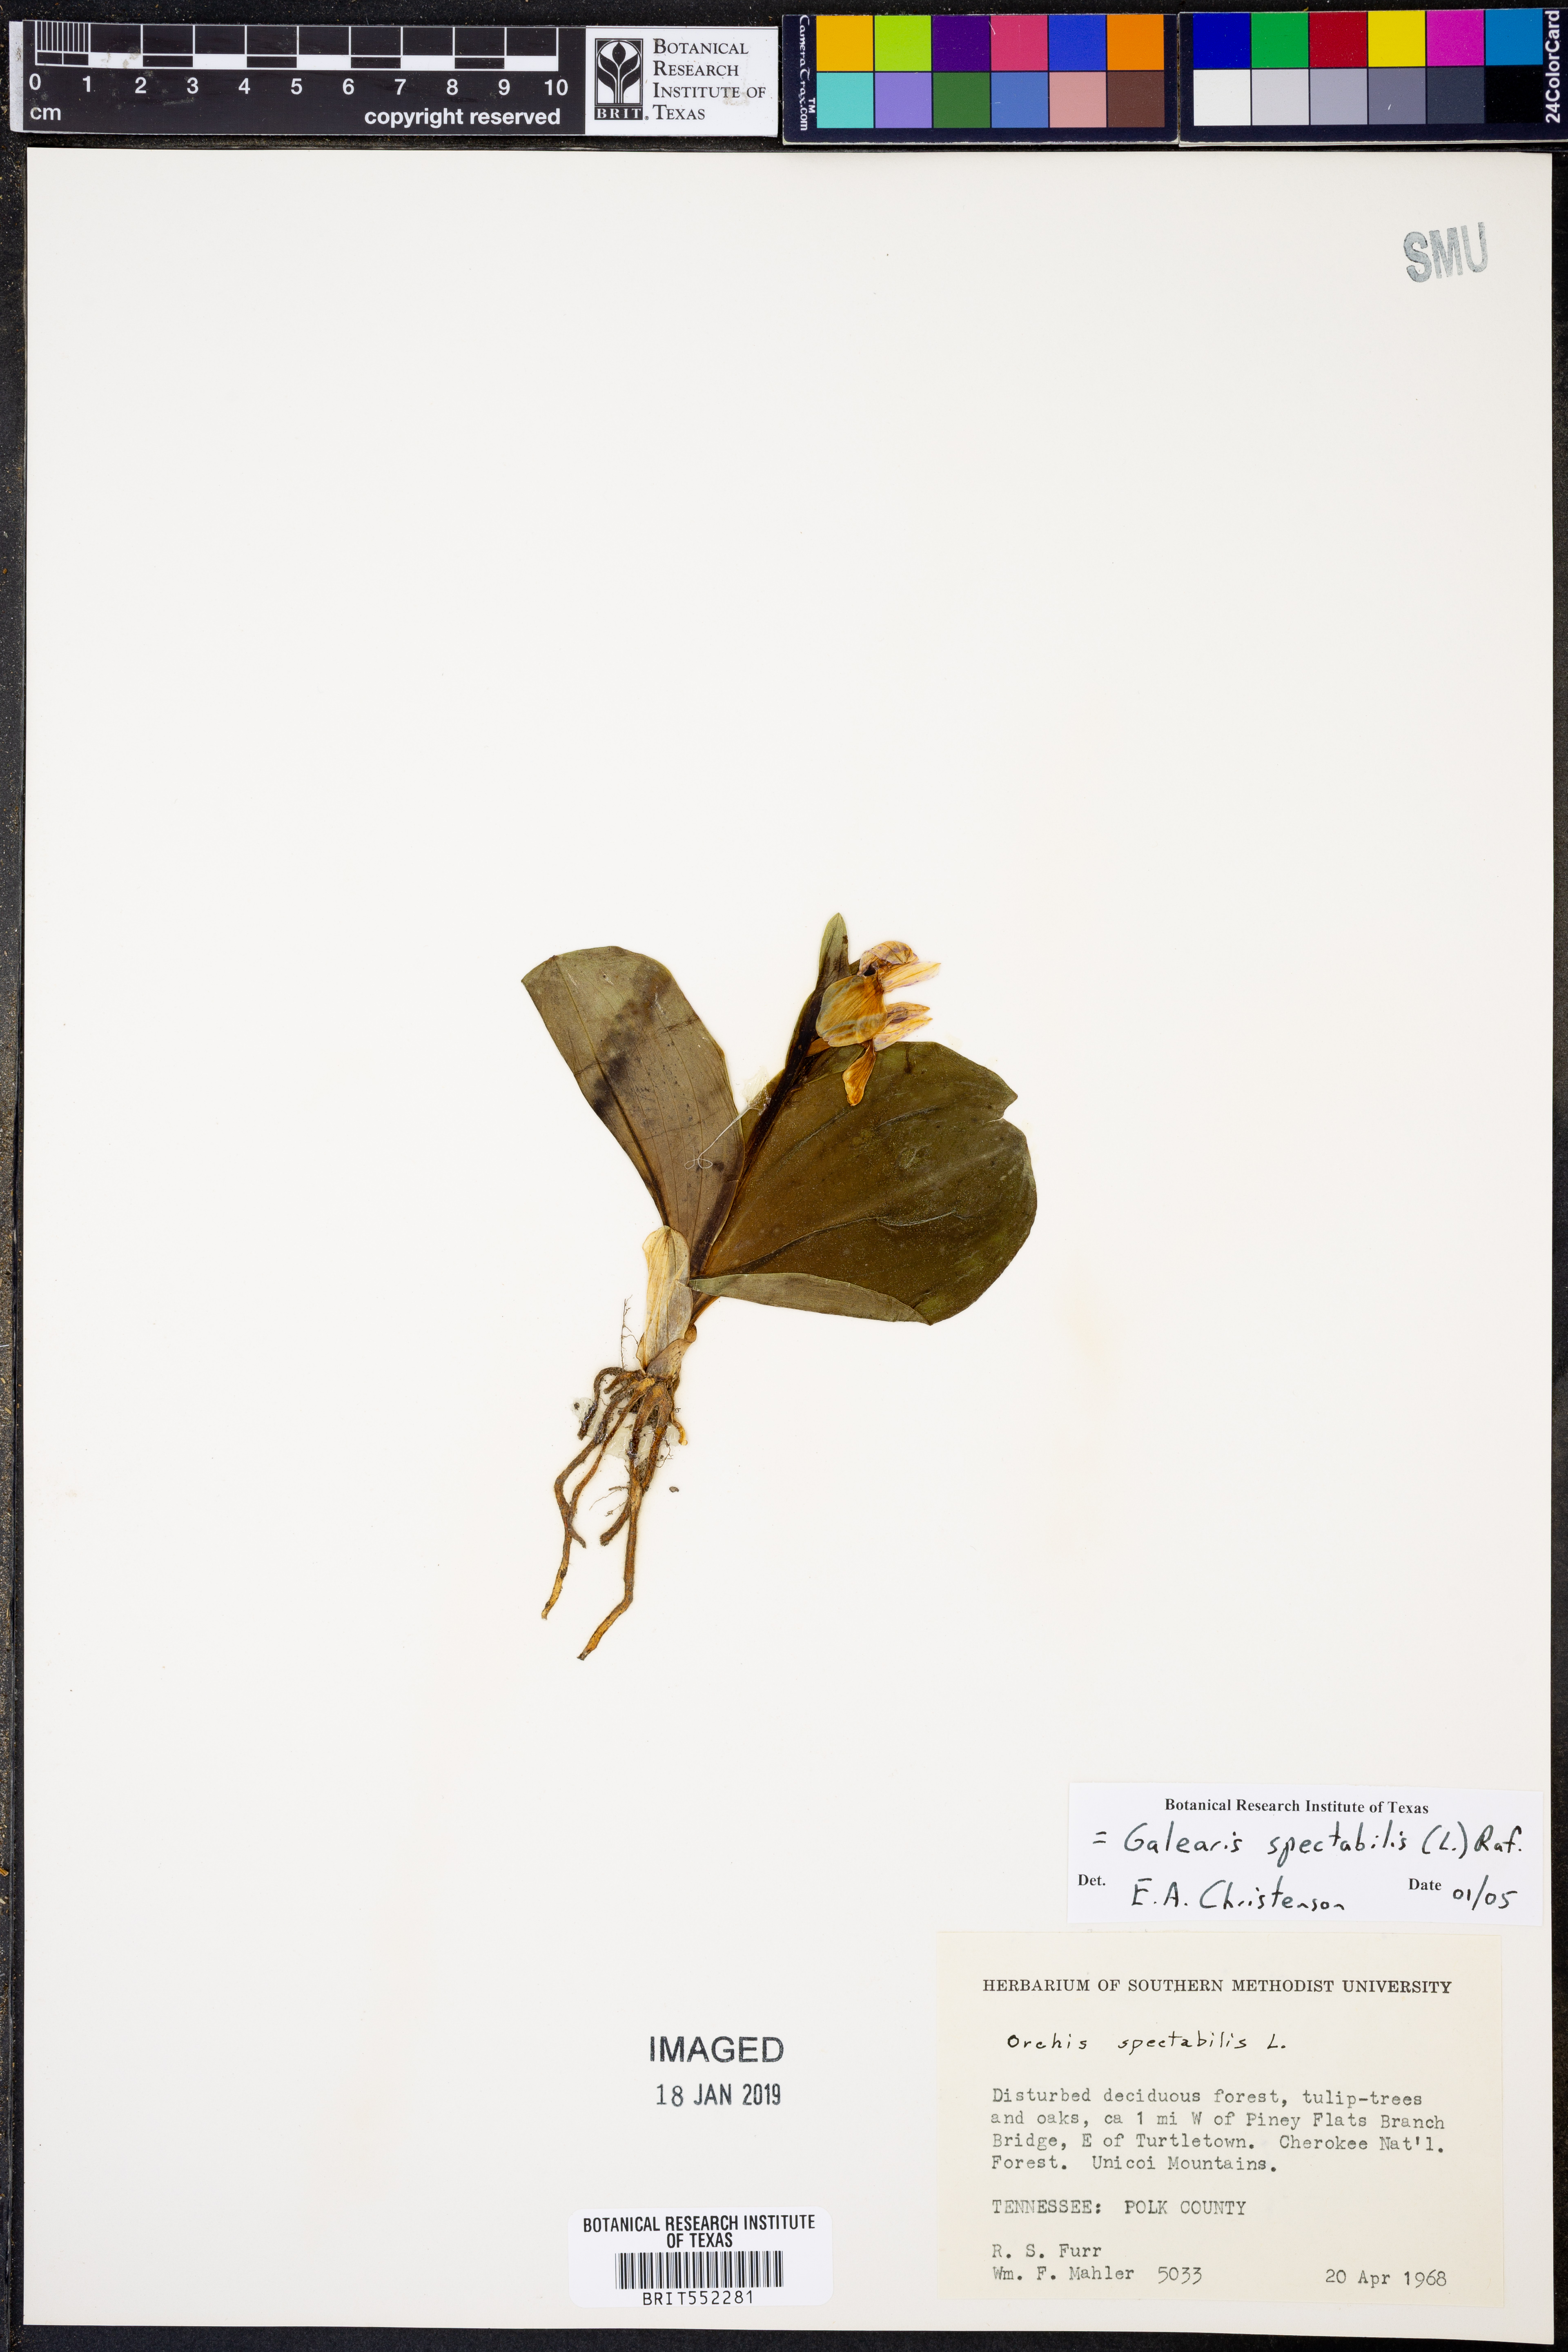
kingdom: Plantae
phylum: Tracheophyta
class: Liliopsida
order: Asparagales
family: Orchidaceae
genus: Galearis
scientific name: Galearis spectabilis
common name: Purple-hooded orchis
